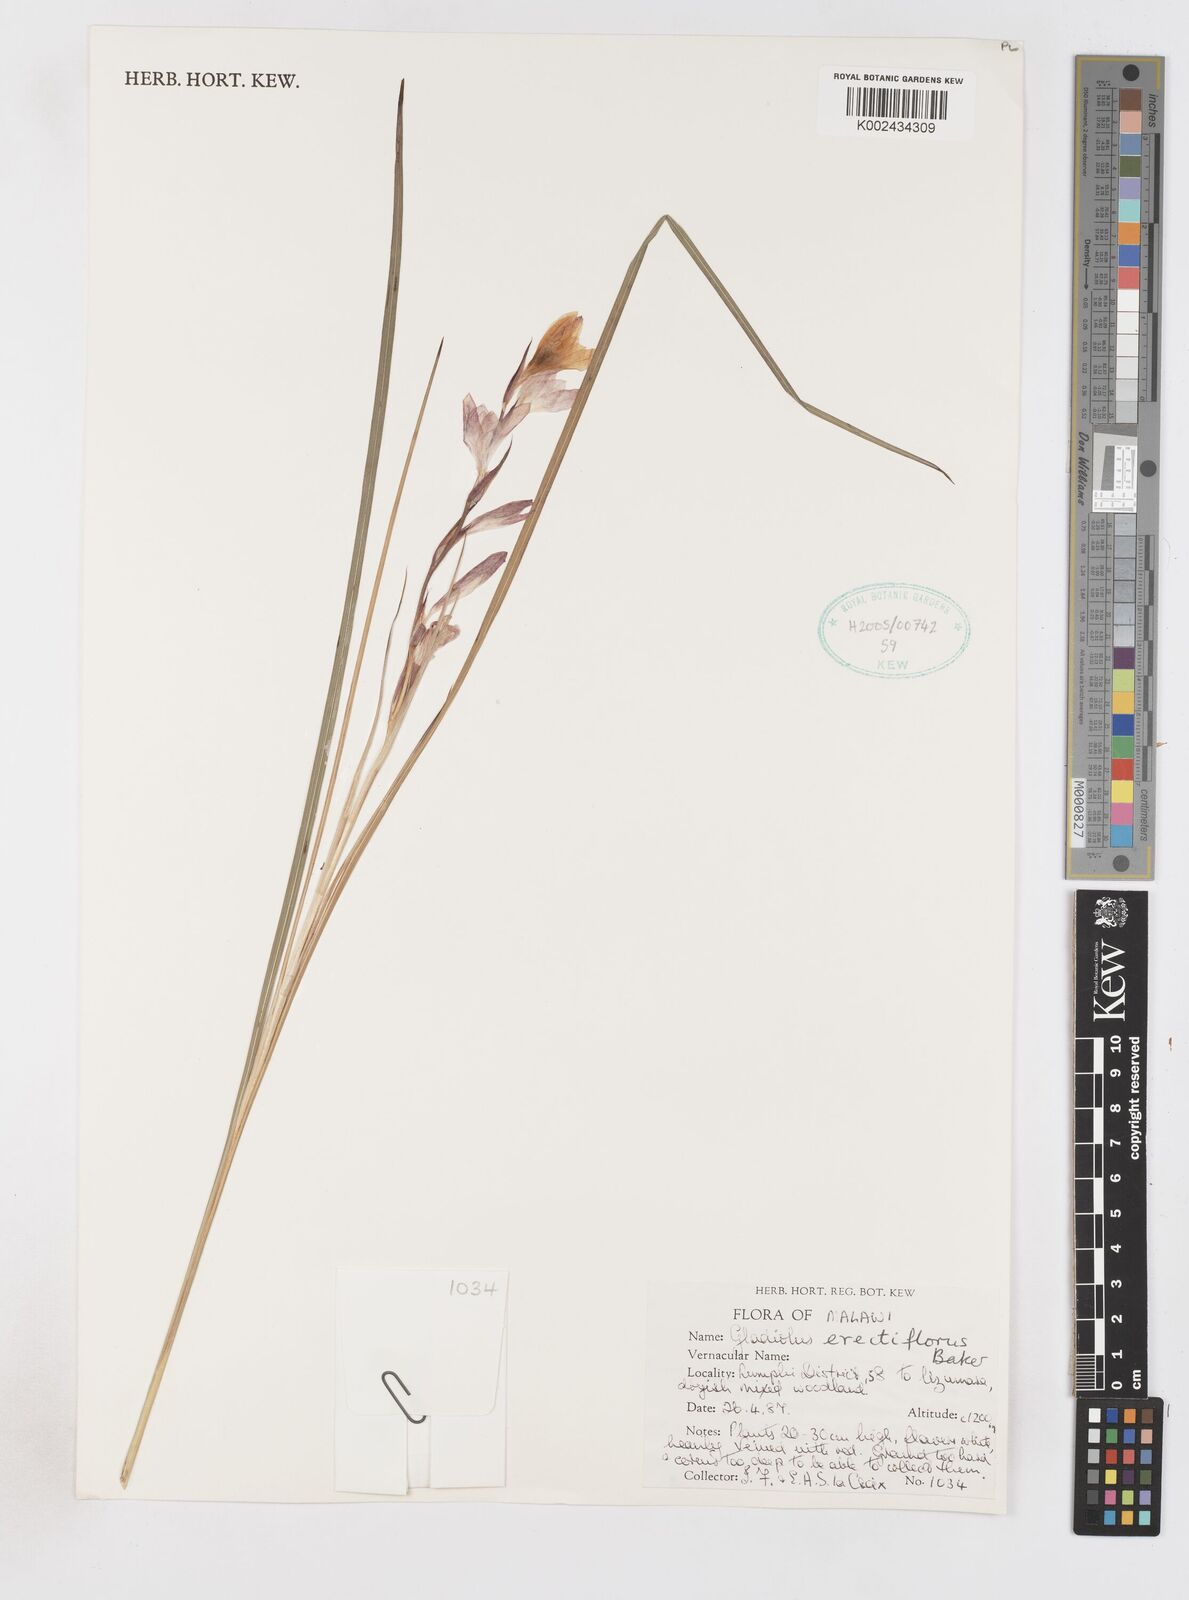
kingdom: Plantae
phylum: Tracheophyta
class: Liliopsida
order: Asparagales
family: Iridaceae
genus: Gladiolus
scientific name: Gladiolus erectiflorus
